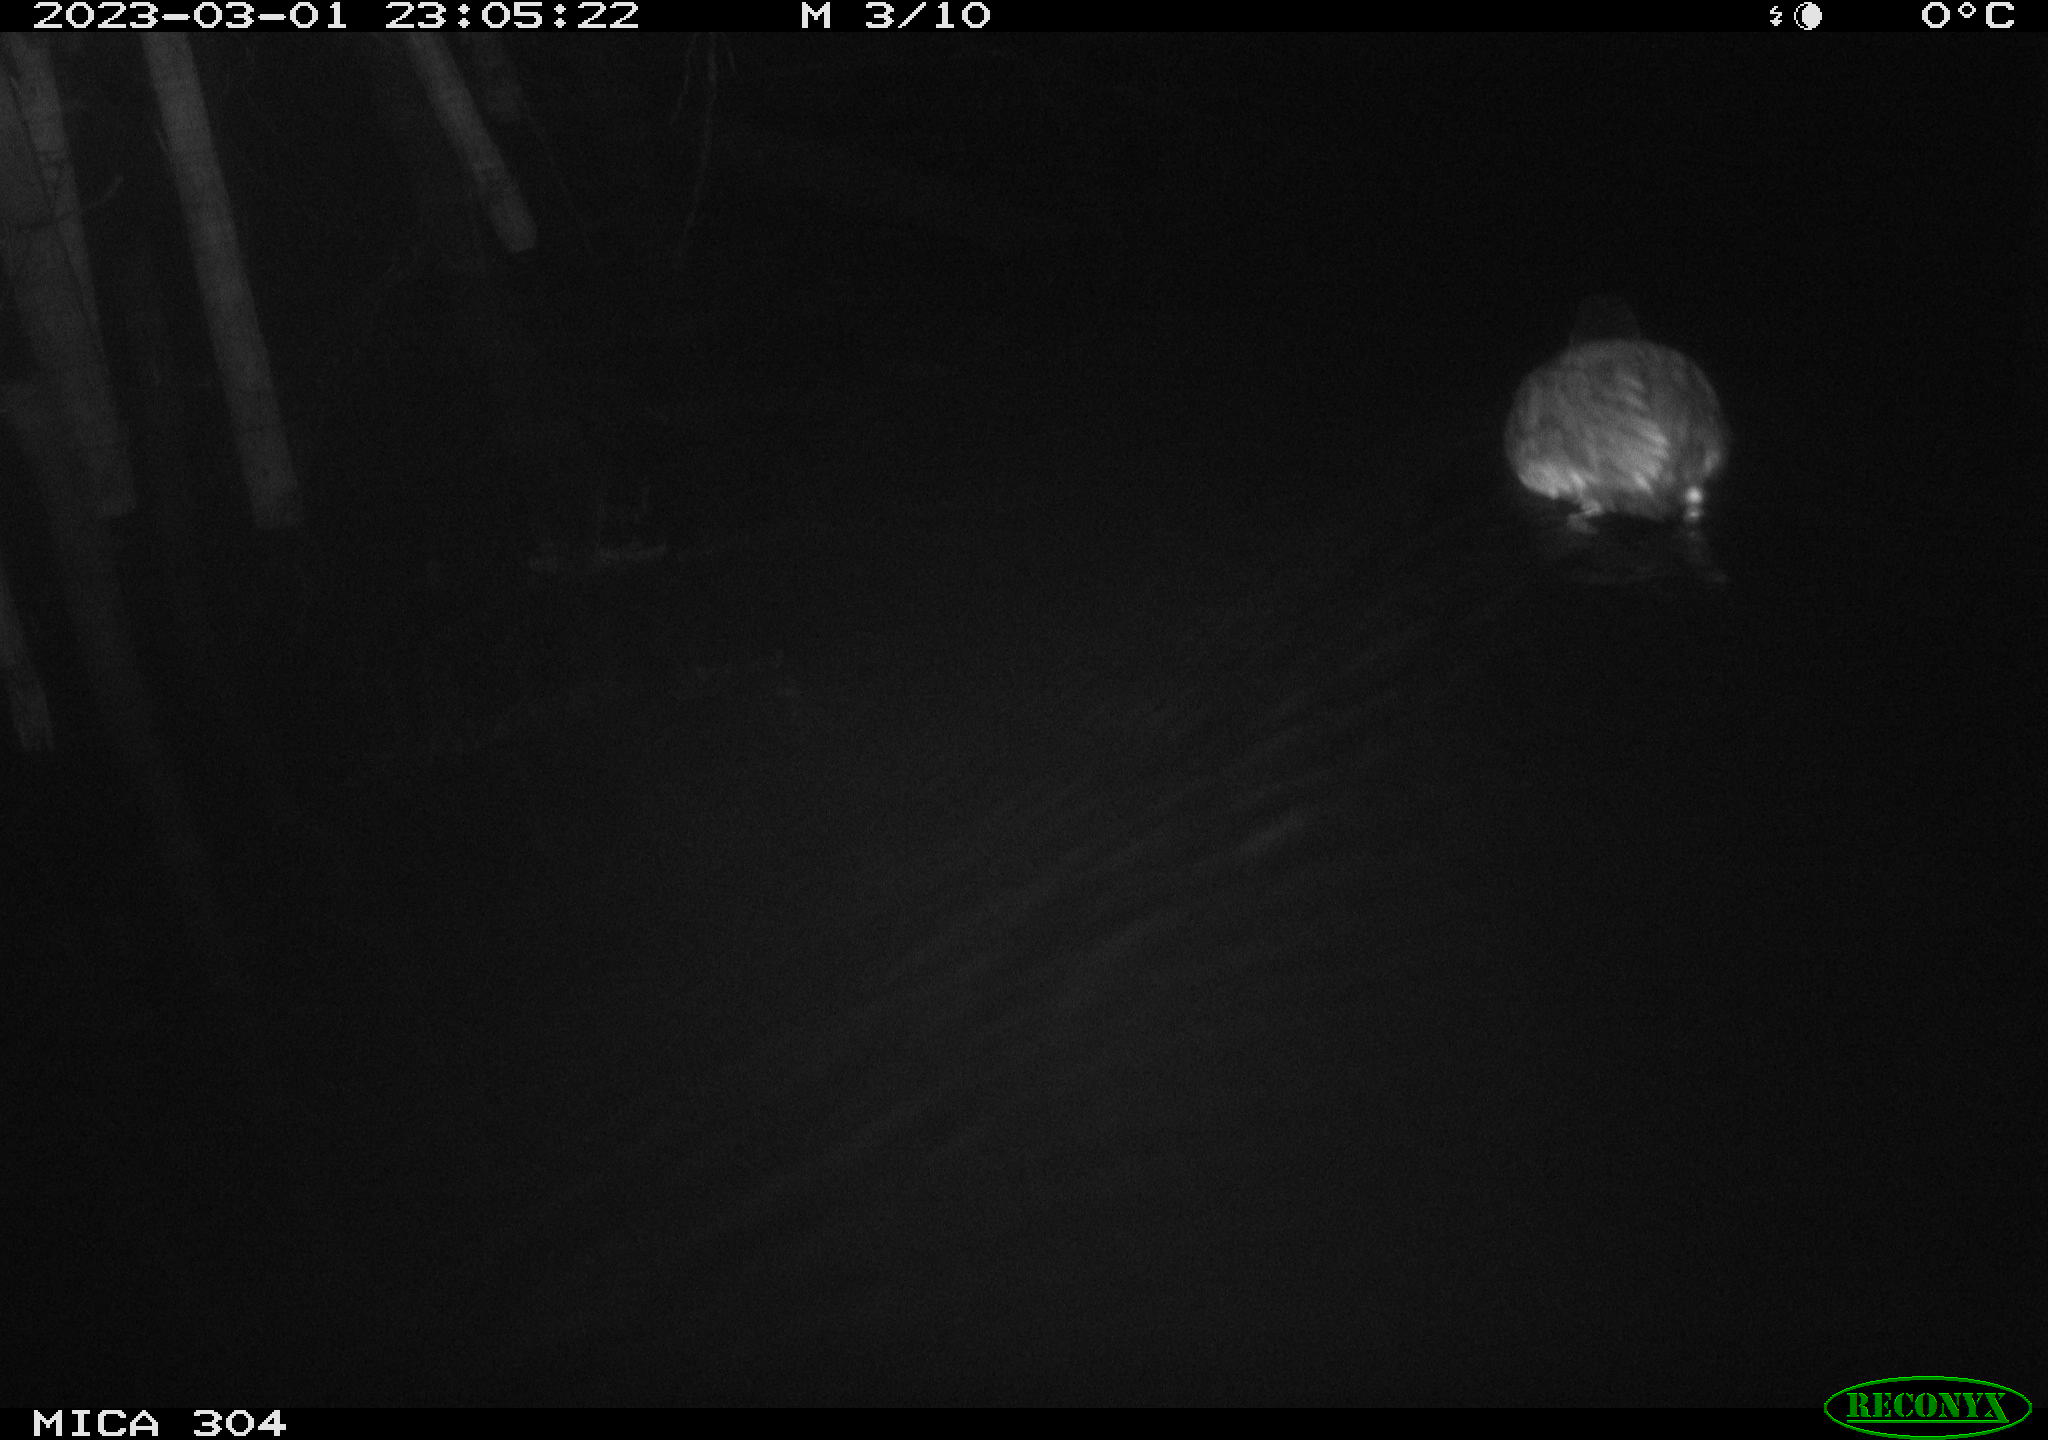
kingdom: Animalia
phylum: Chordata
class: Aves
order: Anseriformes
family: Anatidae
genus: Anas
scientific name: Anas
